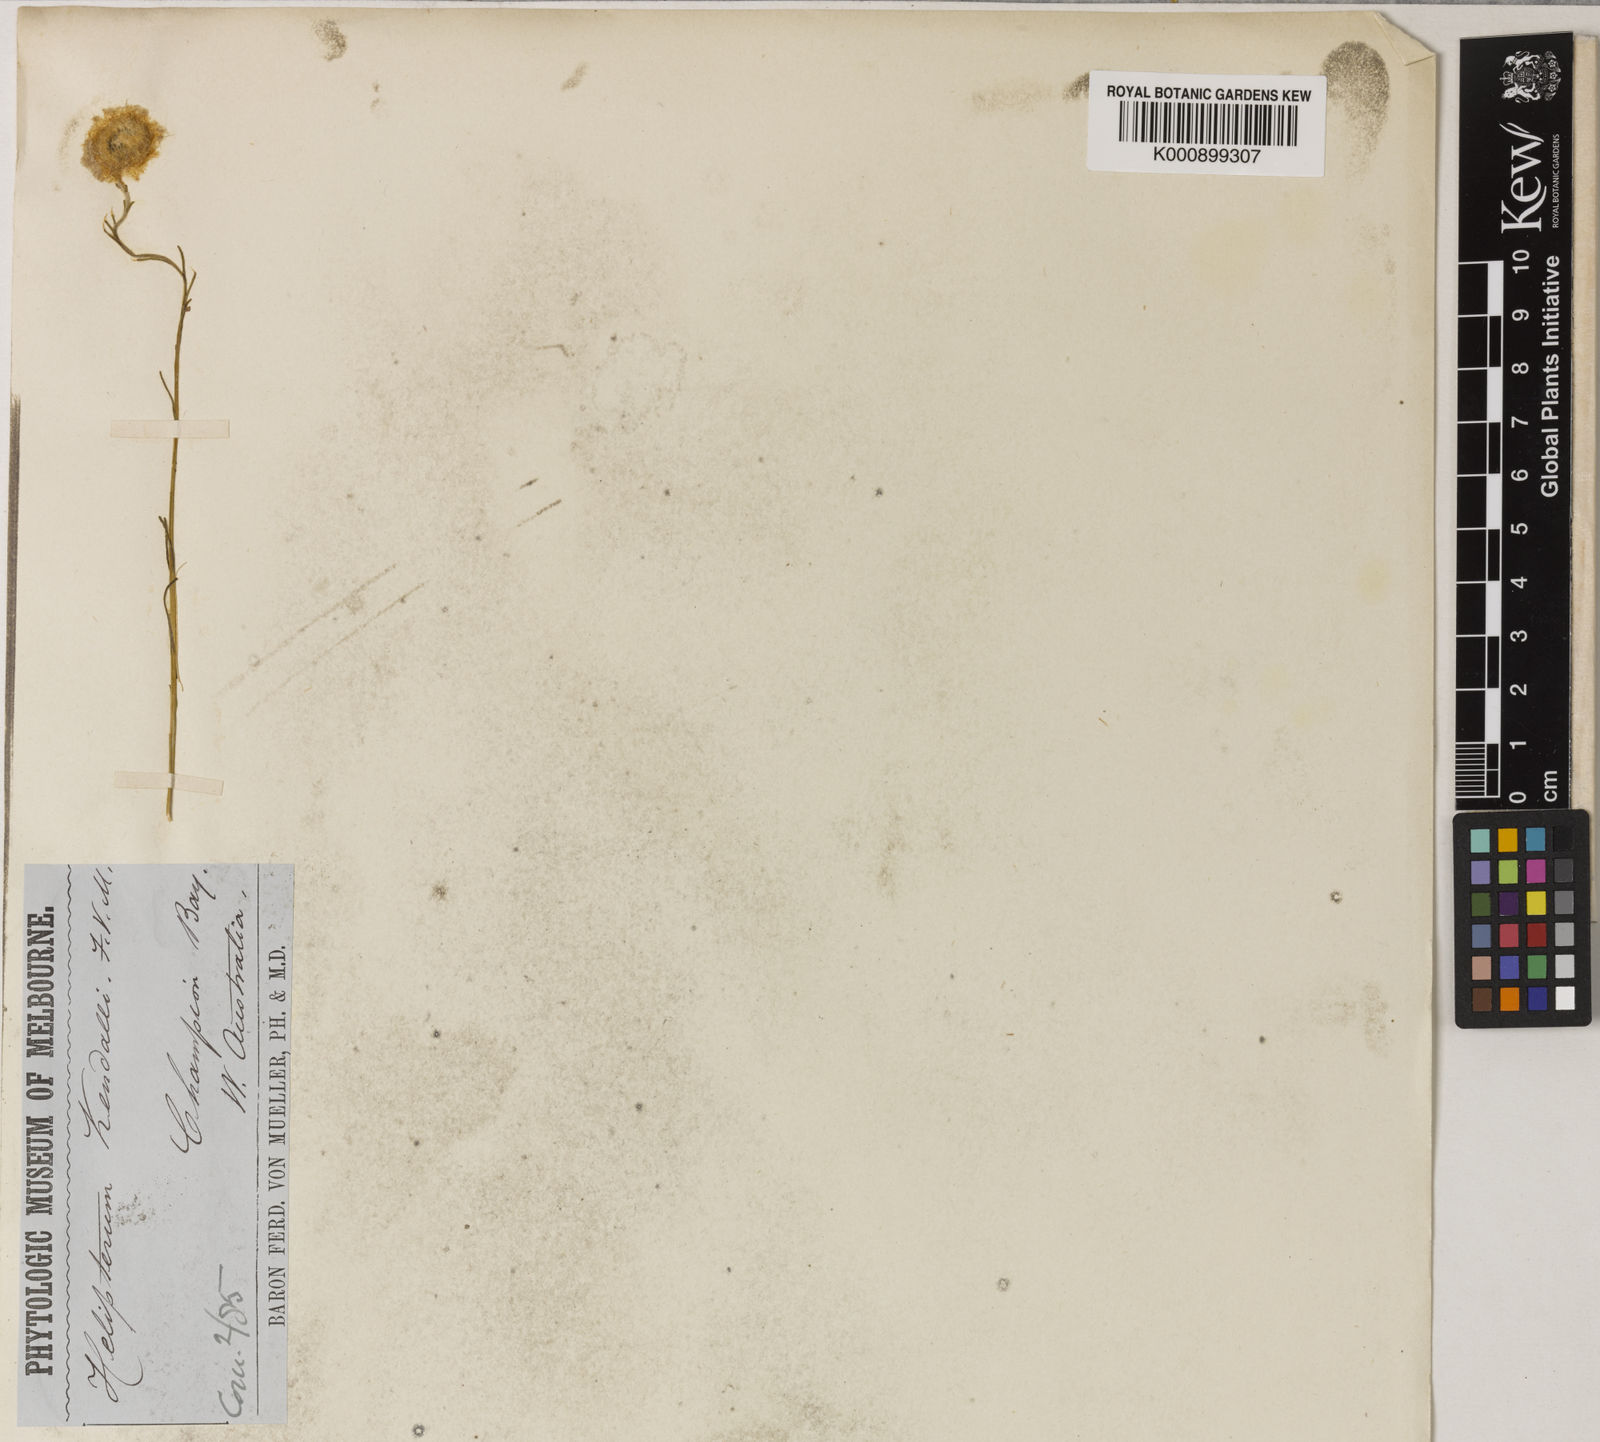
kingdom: Plantae
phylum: Tracheophyta
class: Magnoliopsida
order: Asterales
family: Asteraceae
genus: Waitzia
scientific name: Waitzia
